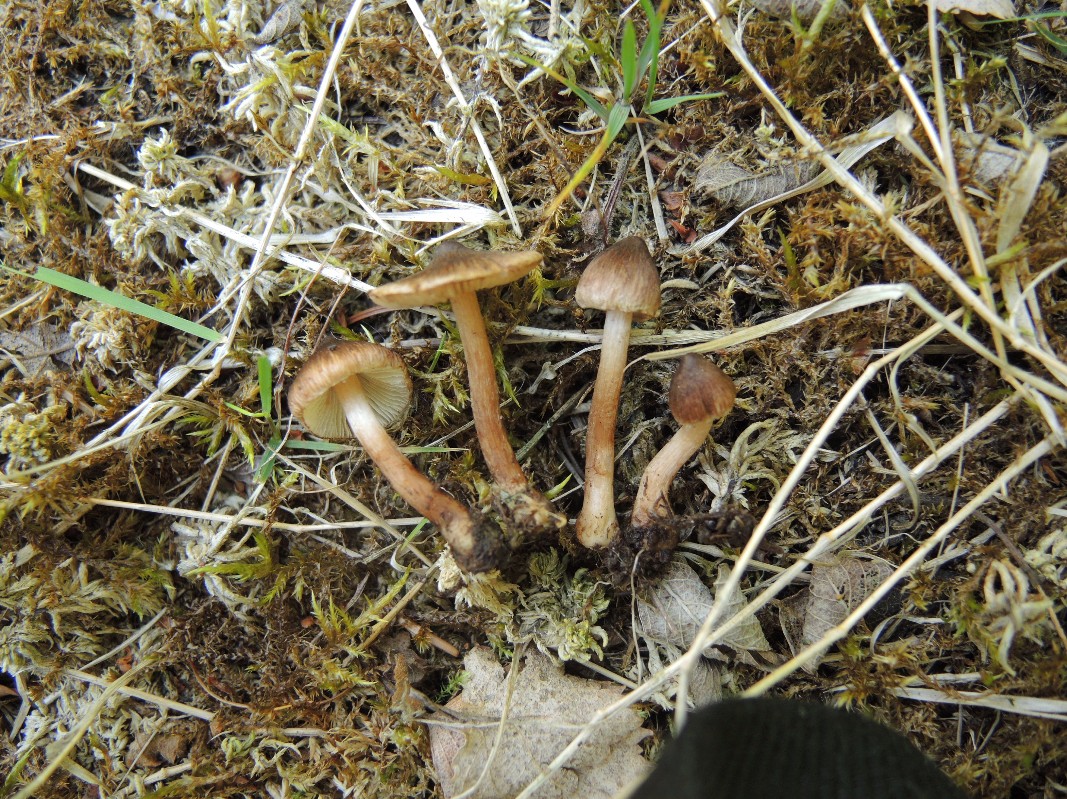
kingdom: Fungi
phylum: Basidiomycota
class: Agaricomycetes
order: Agaricales
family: Inocybaceae
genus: Inocybe
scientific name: Inocybe acuta
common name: papil-trævlhat
